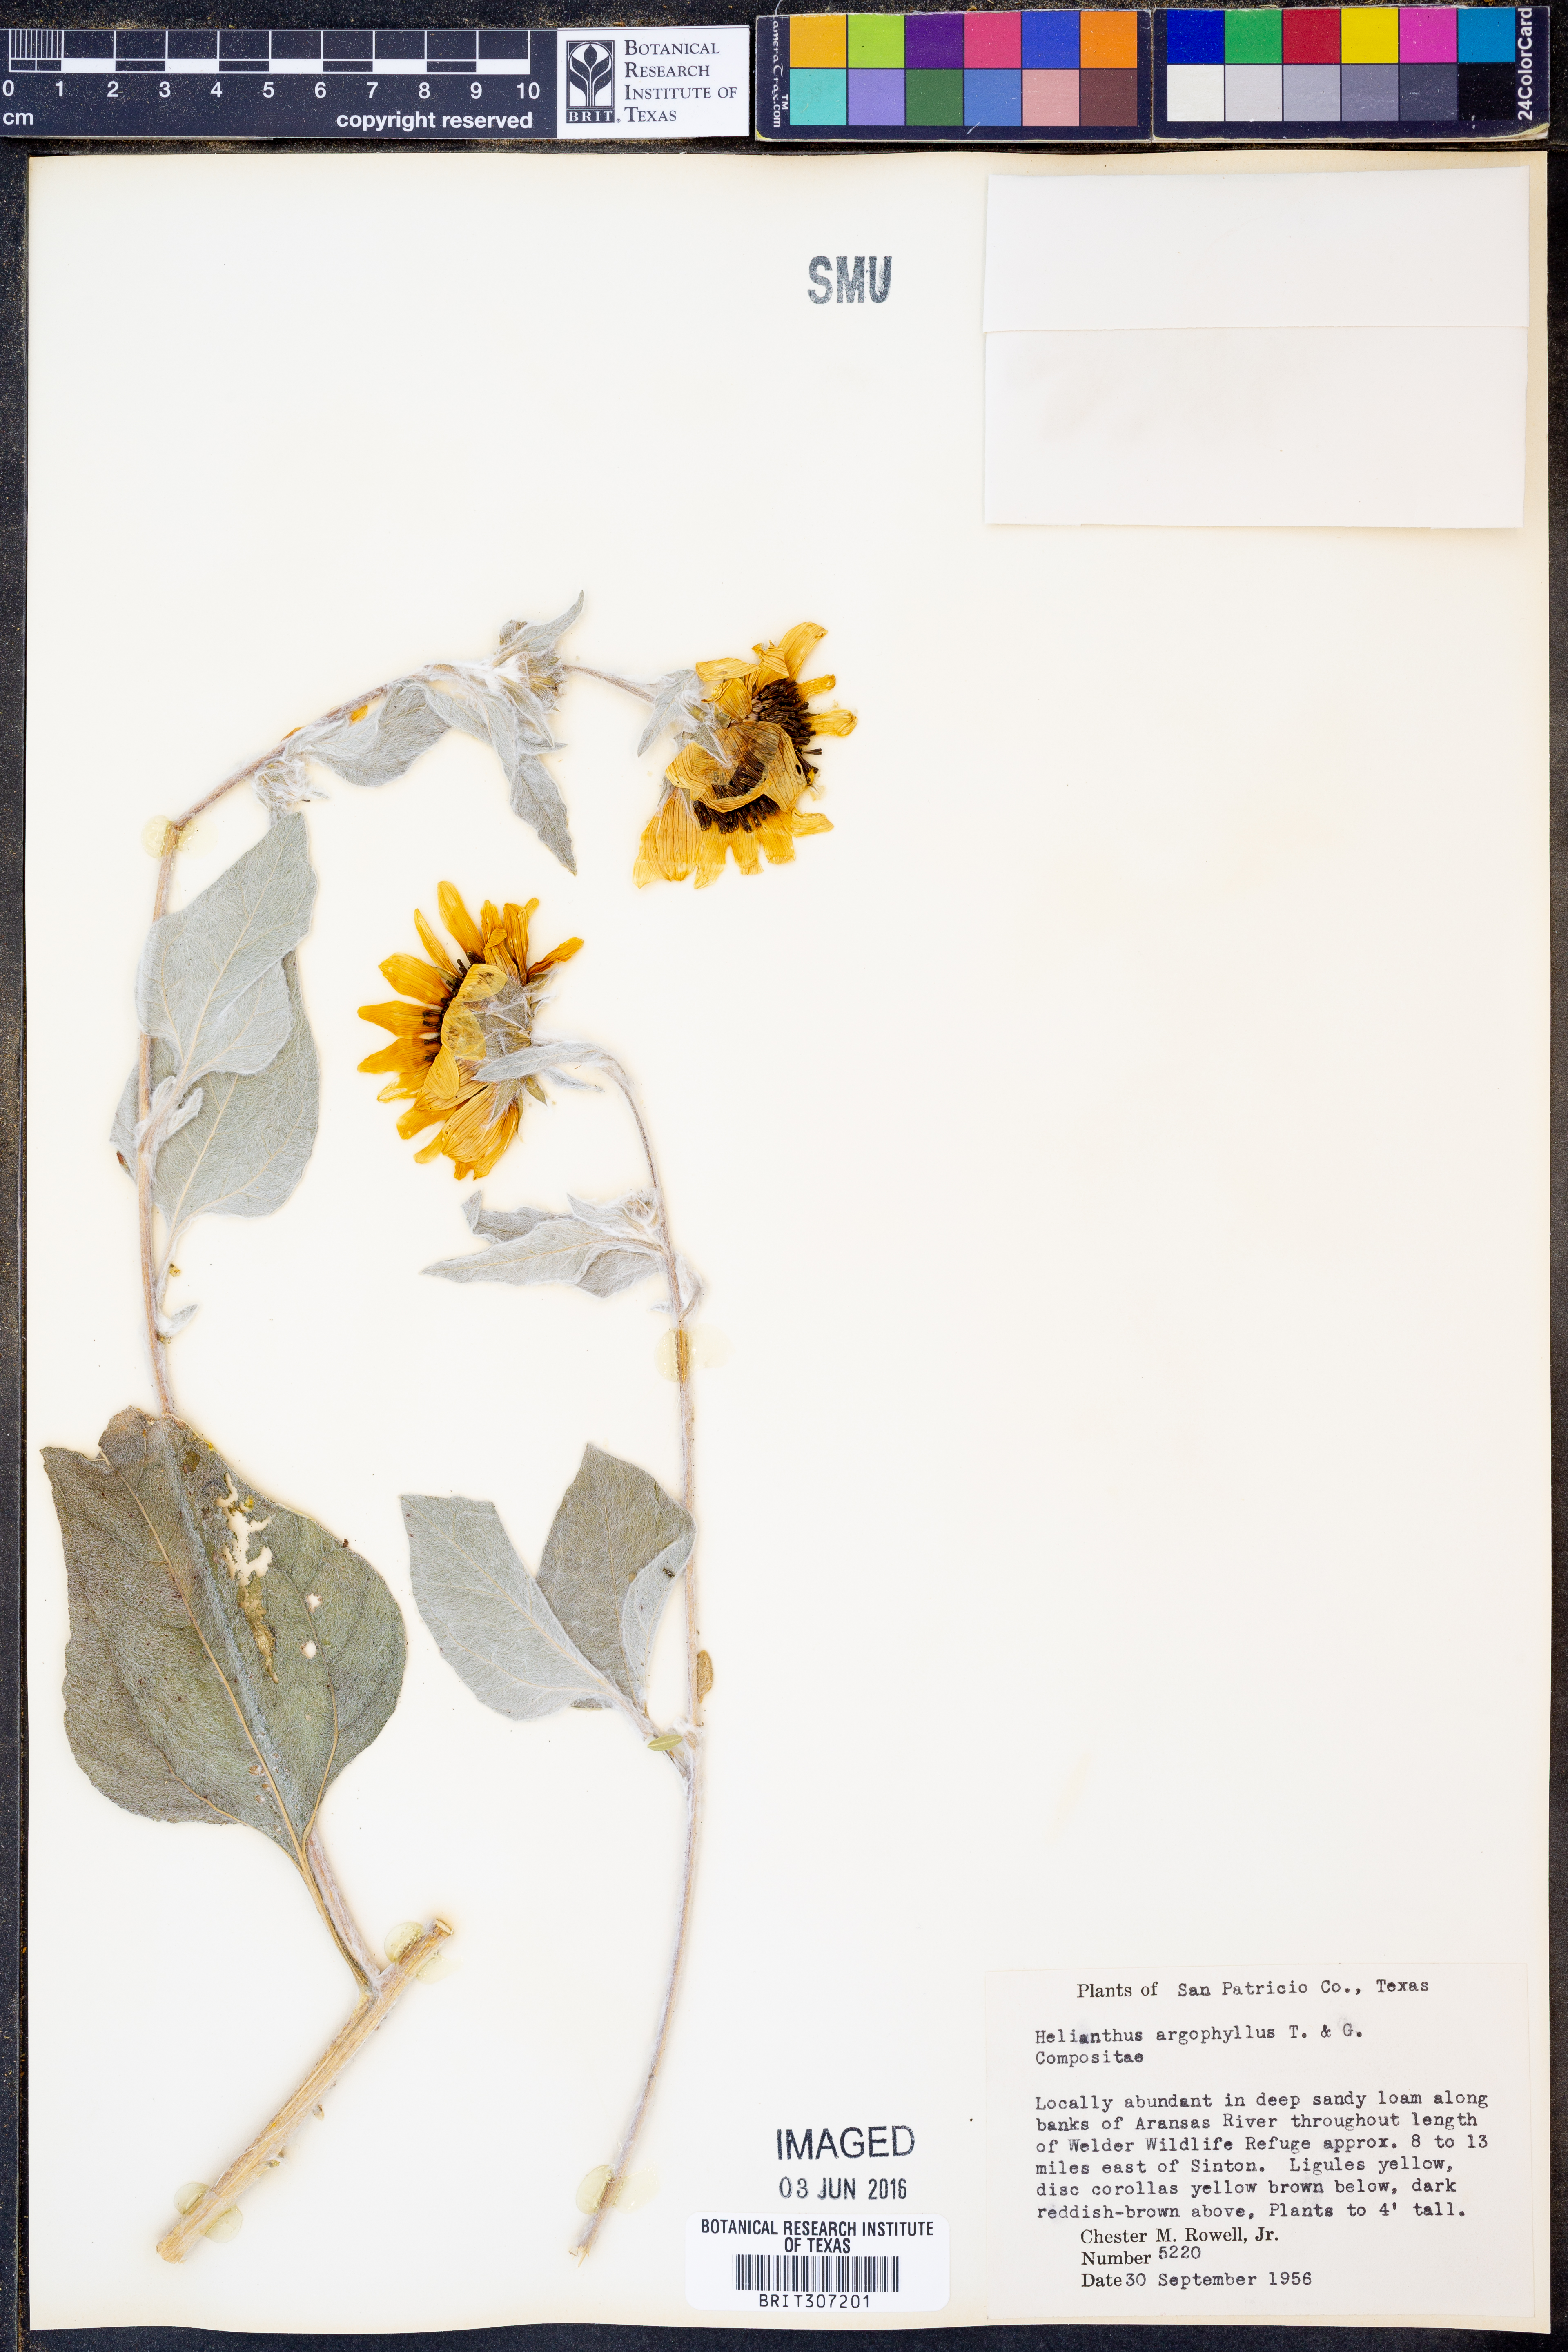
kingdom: Plantae
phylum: Tracheophyta
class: Magnoliopsida
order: Asterales
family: Asteraceae
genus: Helianthus
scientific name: Helianthus argophyllus
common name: Silverleaf sunflower
